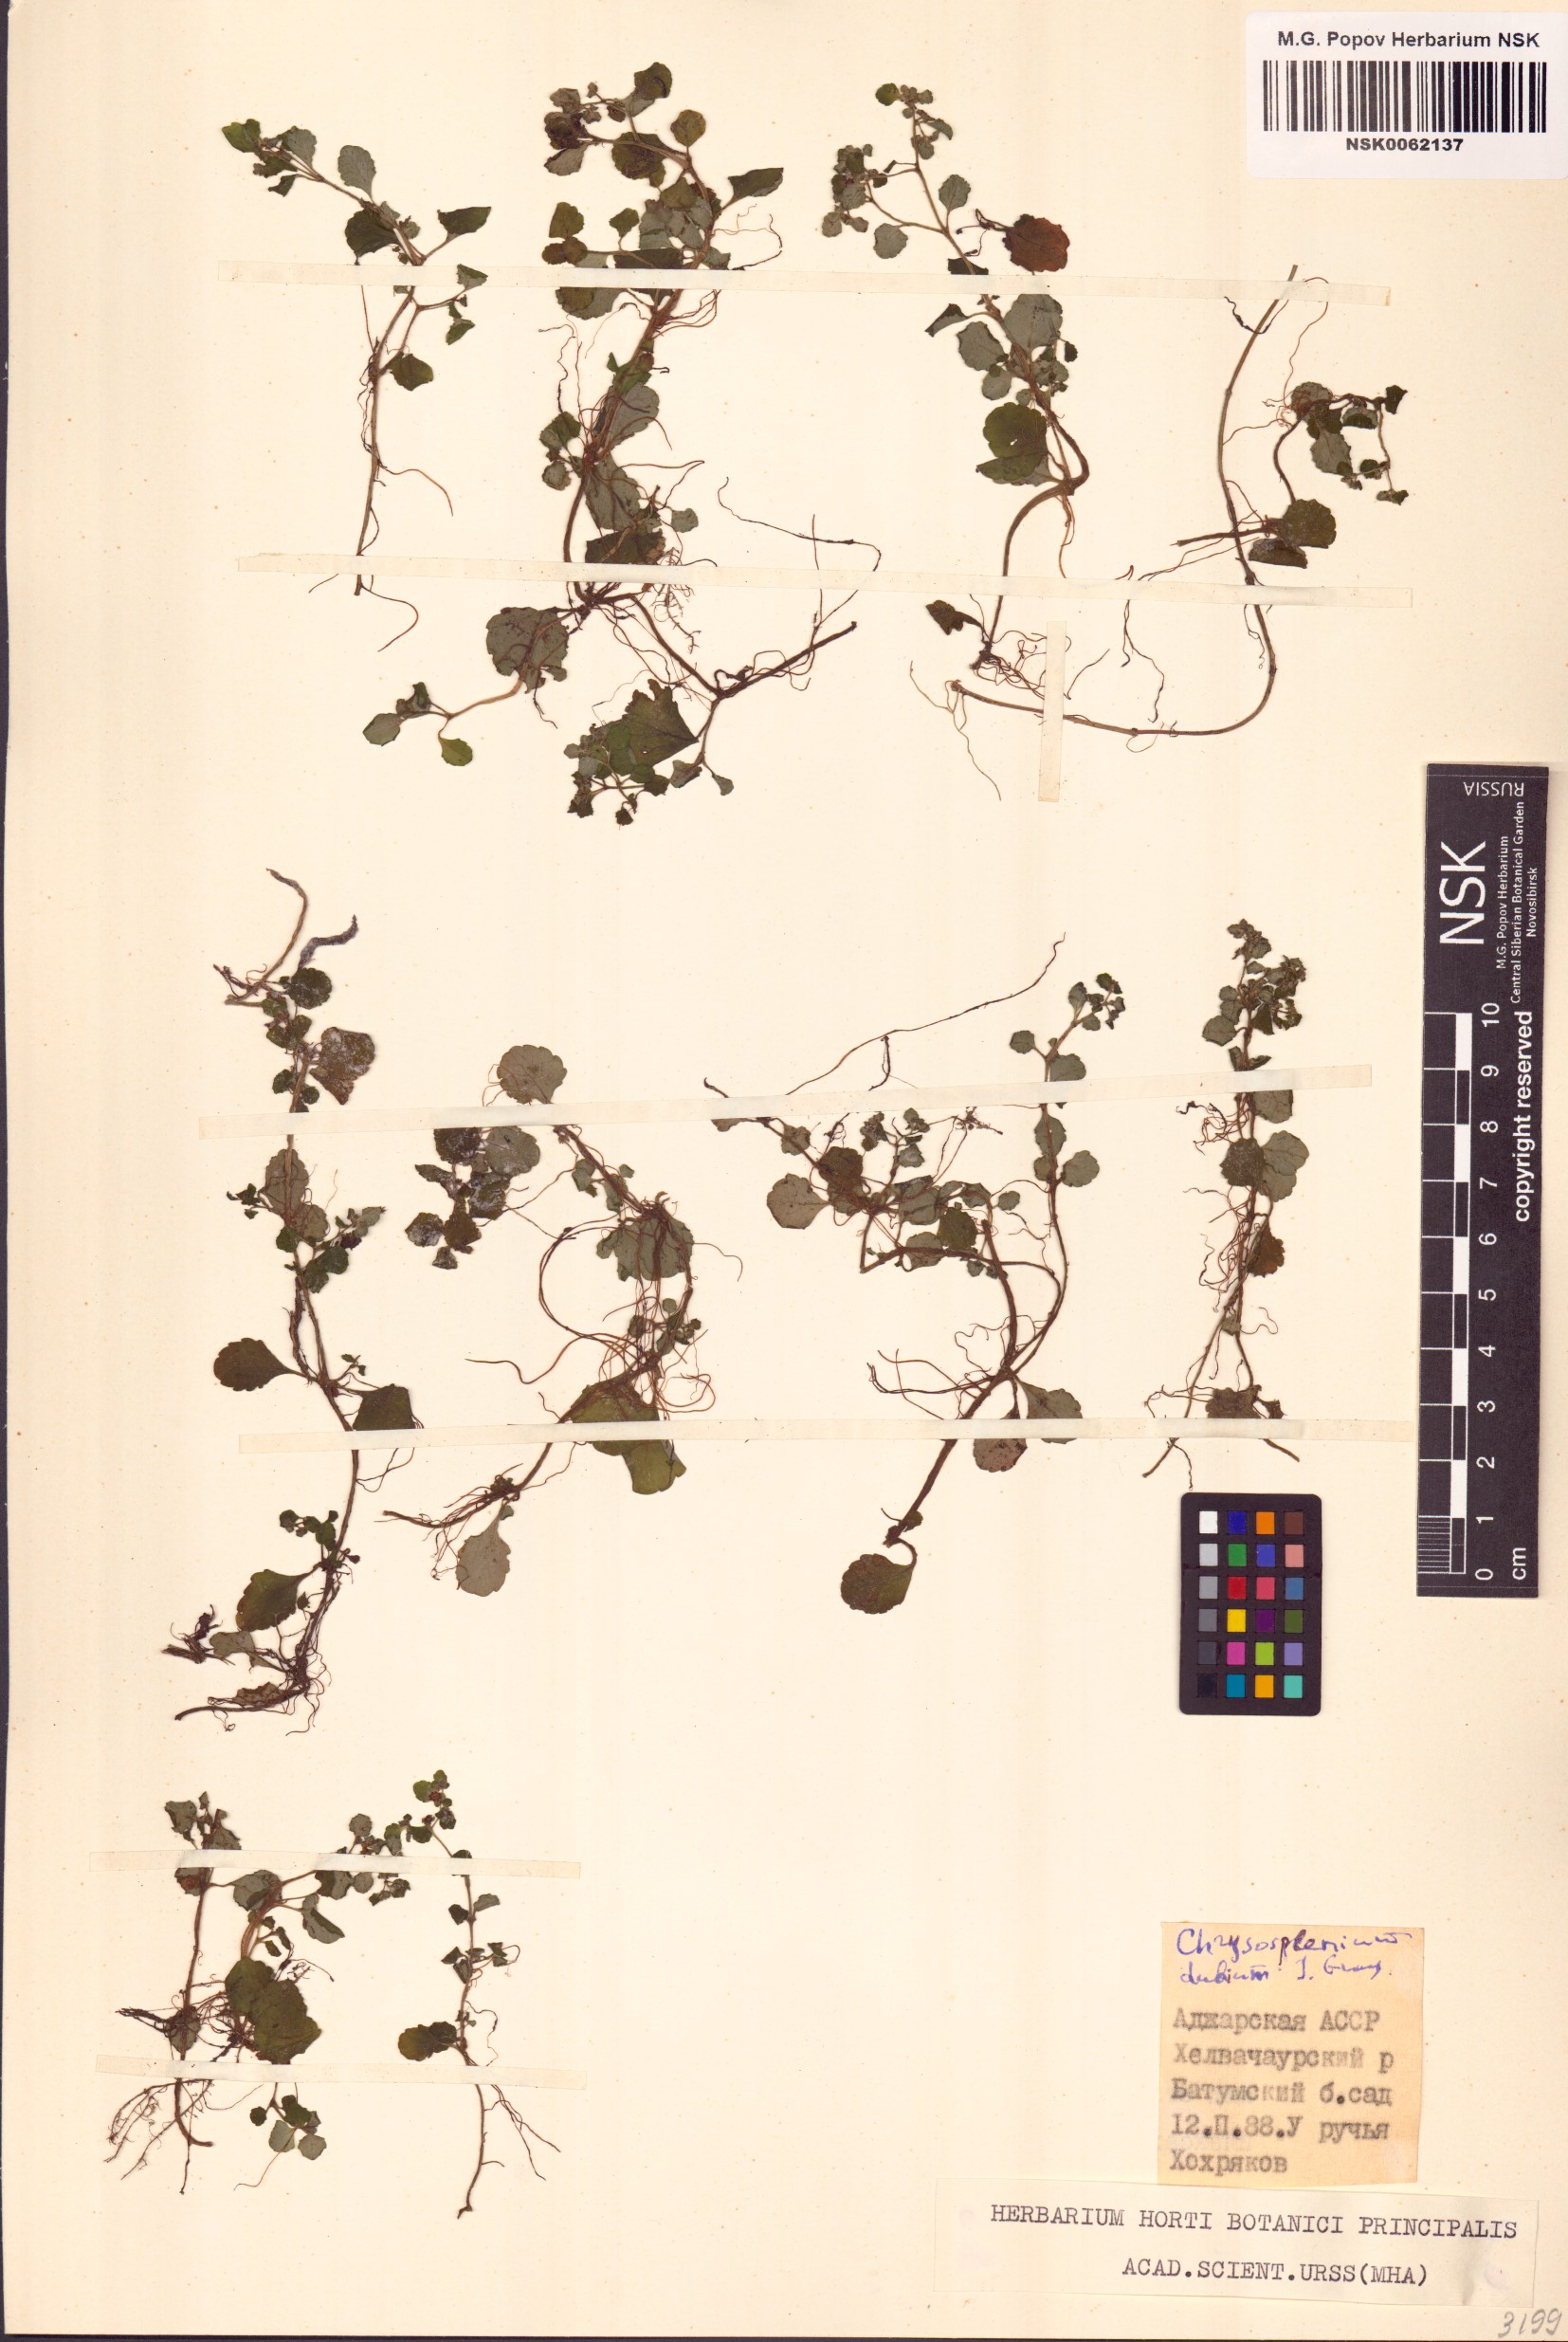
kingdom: Plantae
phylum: Tracheophyta
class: Magnoliopsida
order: Saxifragales
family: Saxifragaceae
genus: Chrysosplenium
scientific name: Chrysosplenium dubium
